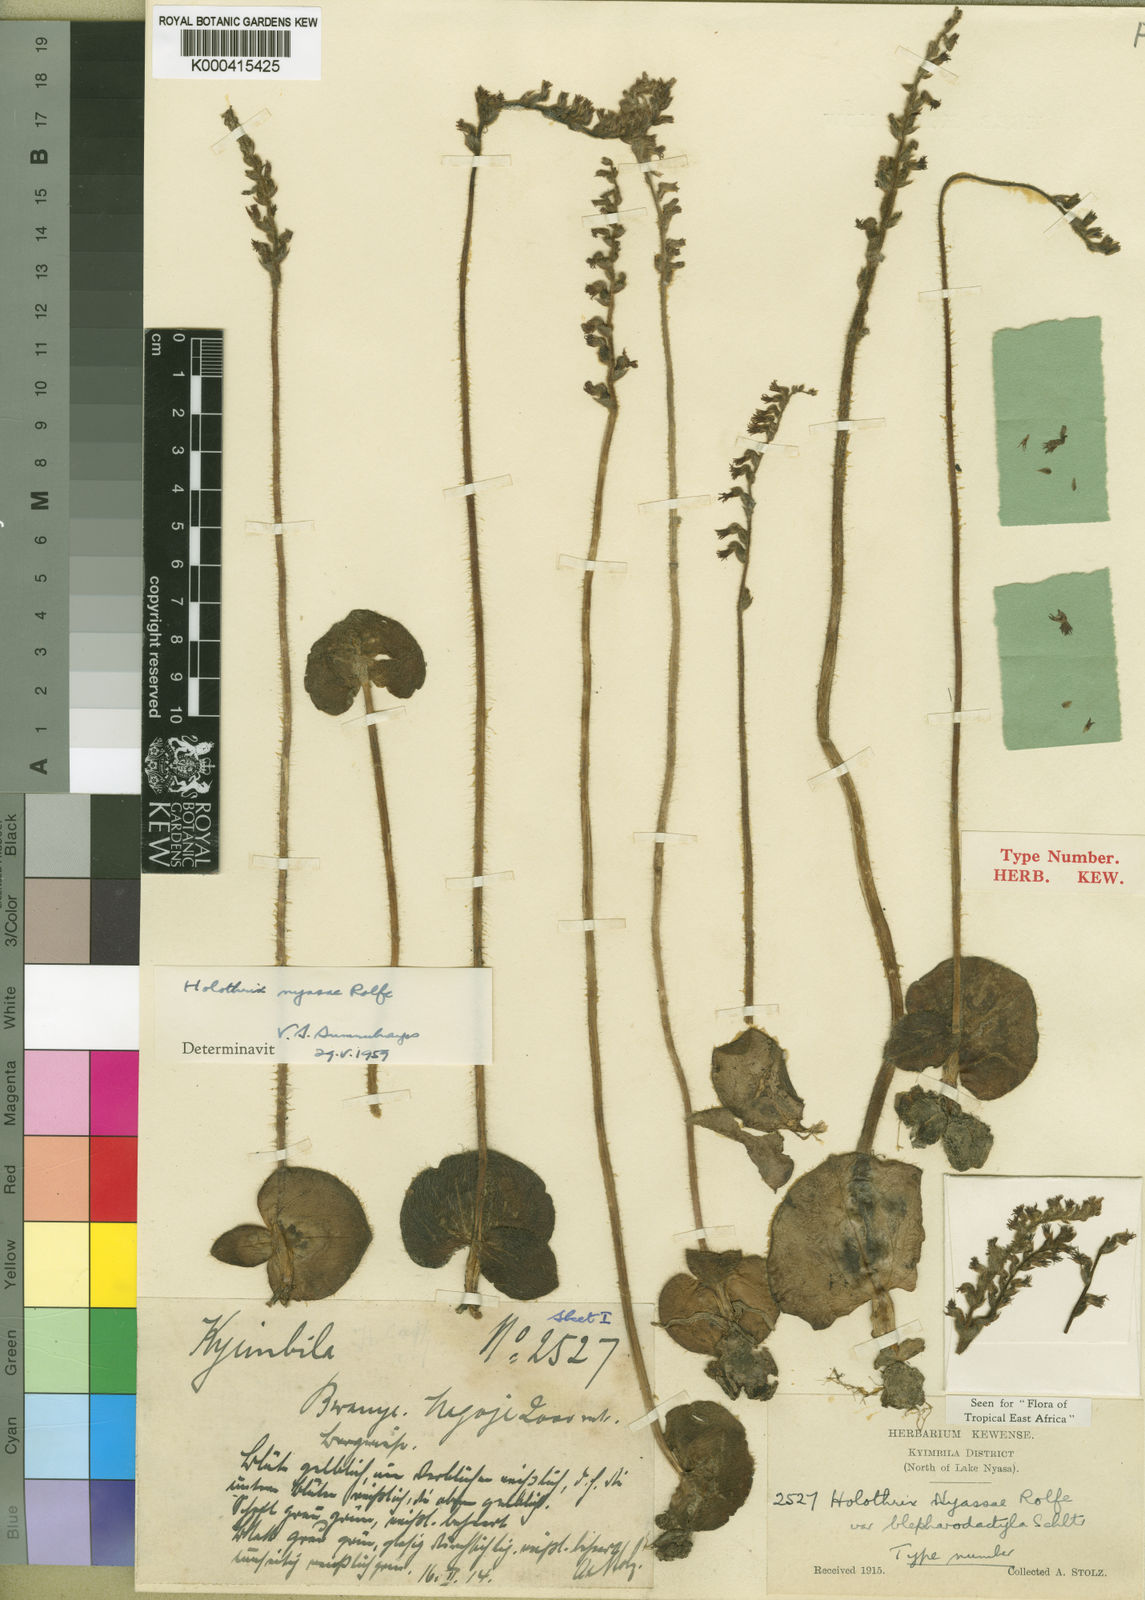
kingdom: Plantae
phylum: Tracheophyta
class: Liliopsida
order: Asparagales
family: Orchidaceae
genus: Holothrix
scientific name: Holothrix nyasae
